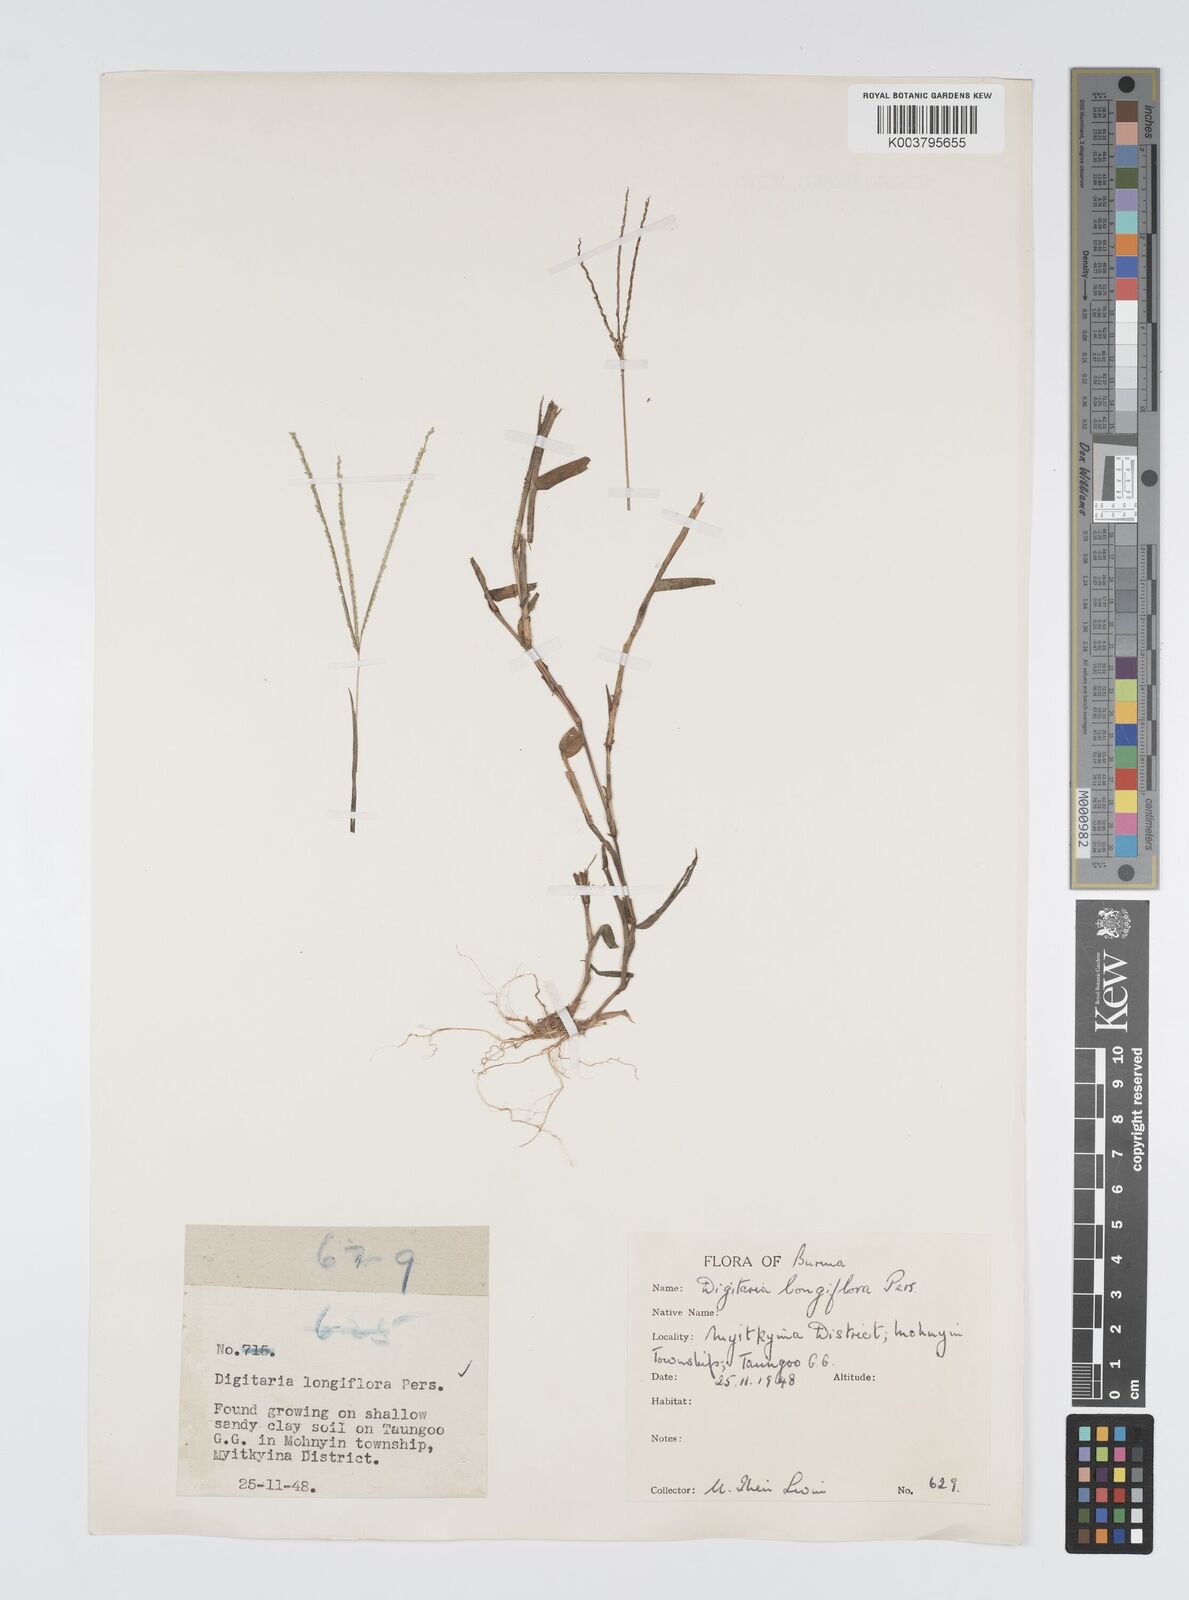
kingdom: Plantae
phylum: Tracheophyta
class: Liliopsida
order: Poales
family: Poaceae
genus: Digitaria
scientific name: Digitaria longiflora
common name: Wire crabgrass
